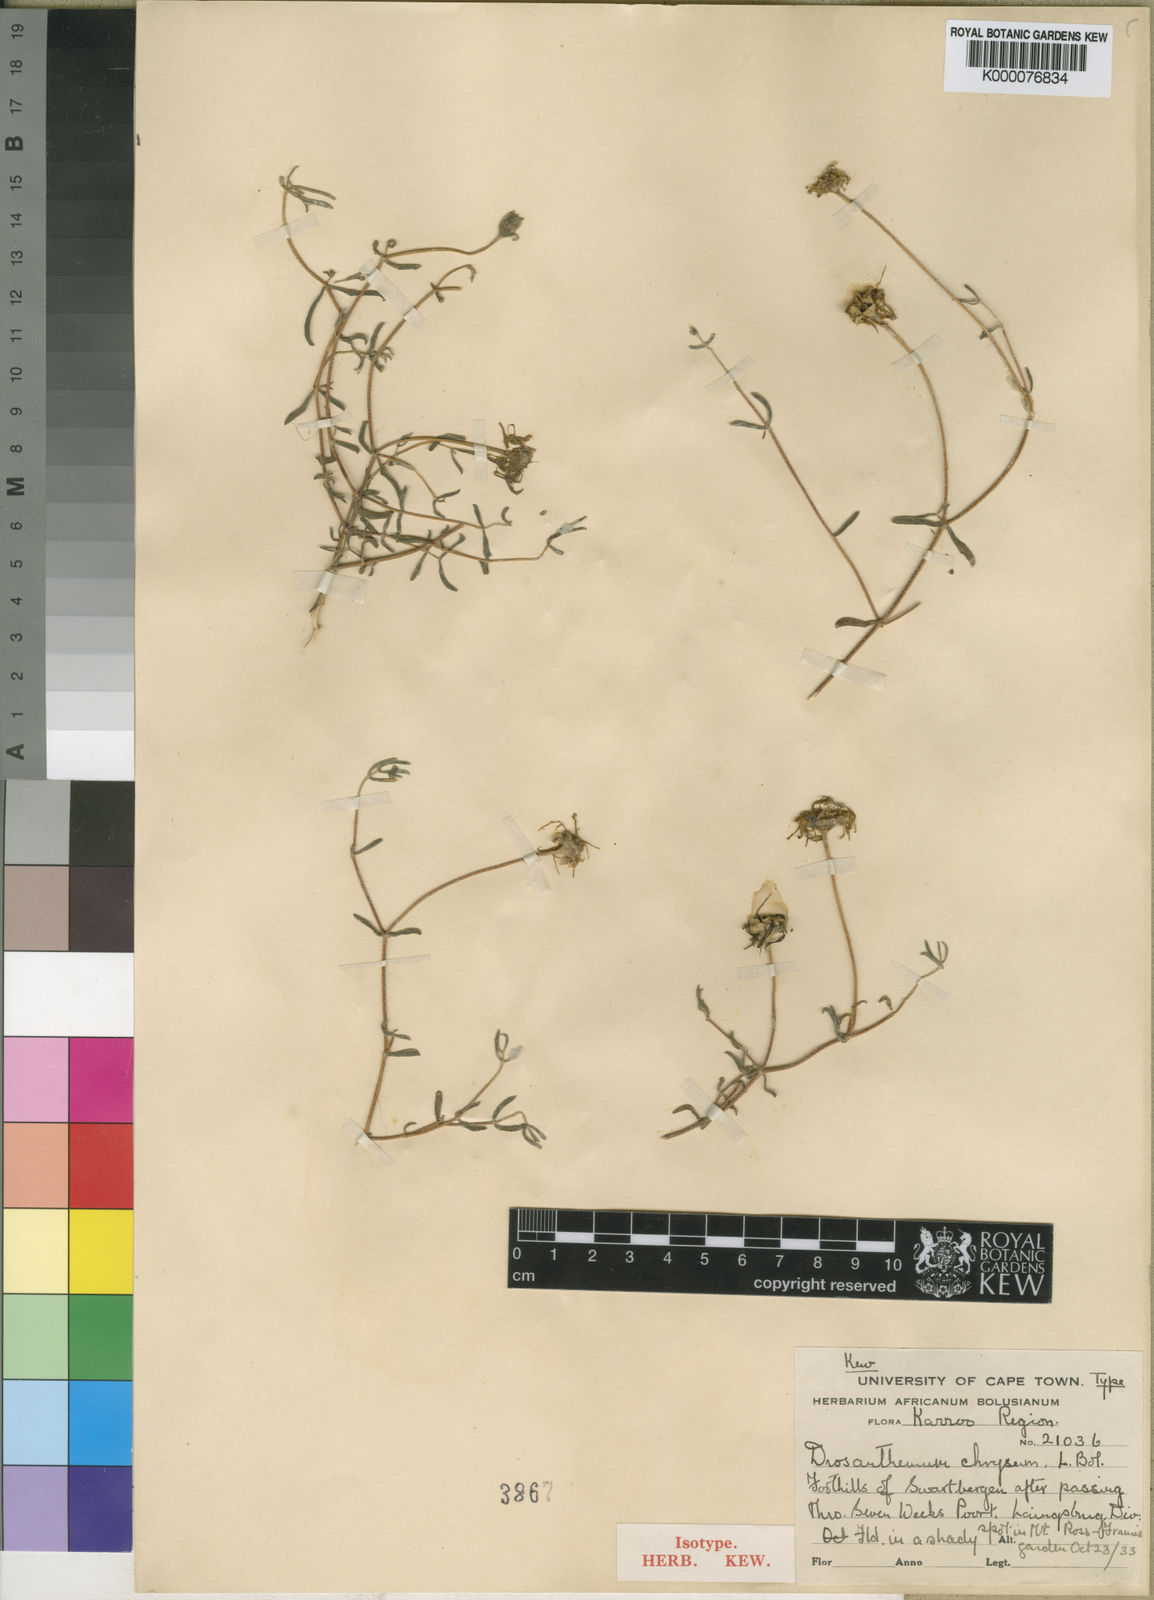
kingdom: Plantae
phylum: Tracheophyta
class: Magnoliopsida
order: Caryophyllales
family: Aizoaceae
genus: Drosanthemum
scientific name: Drosanthemum chrysum
